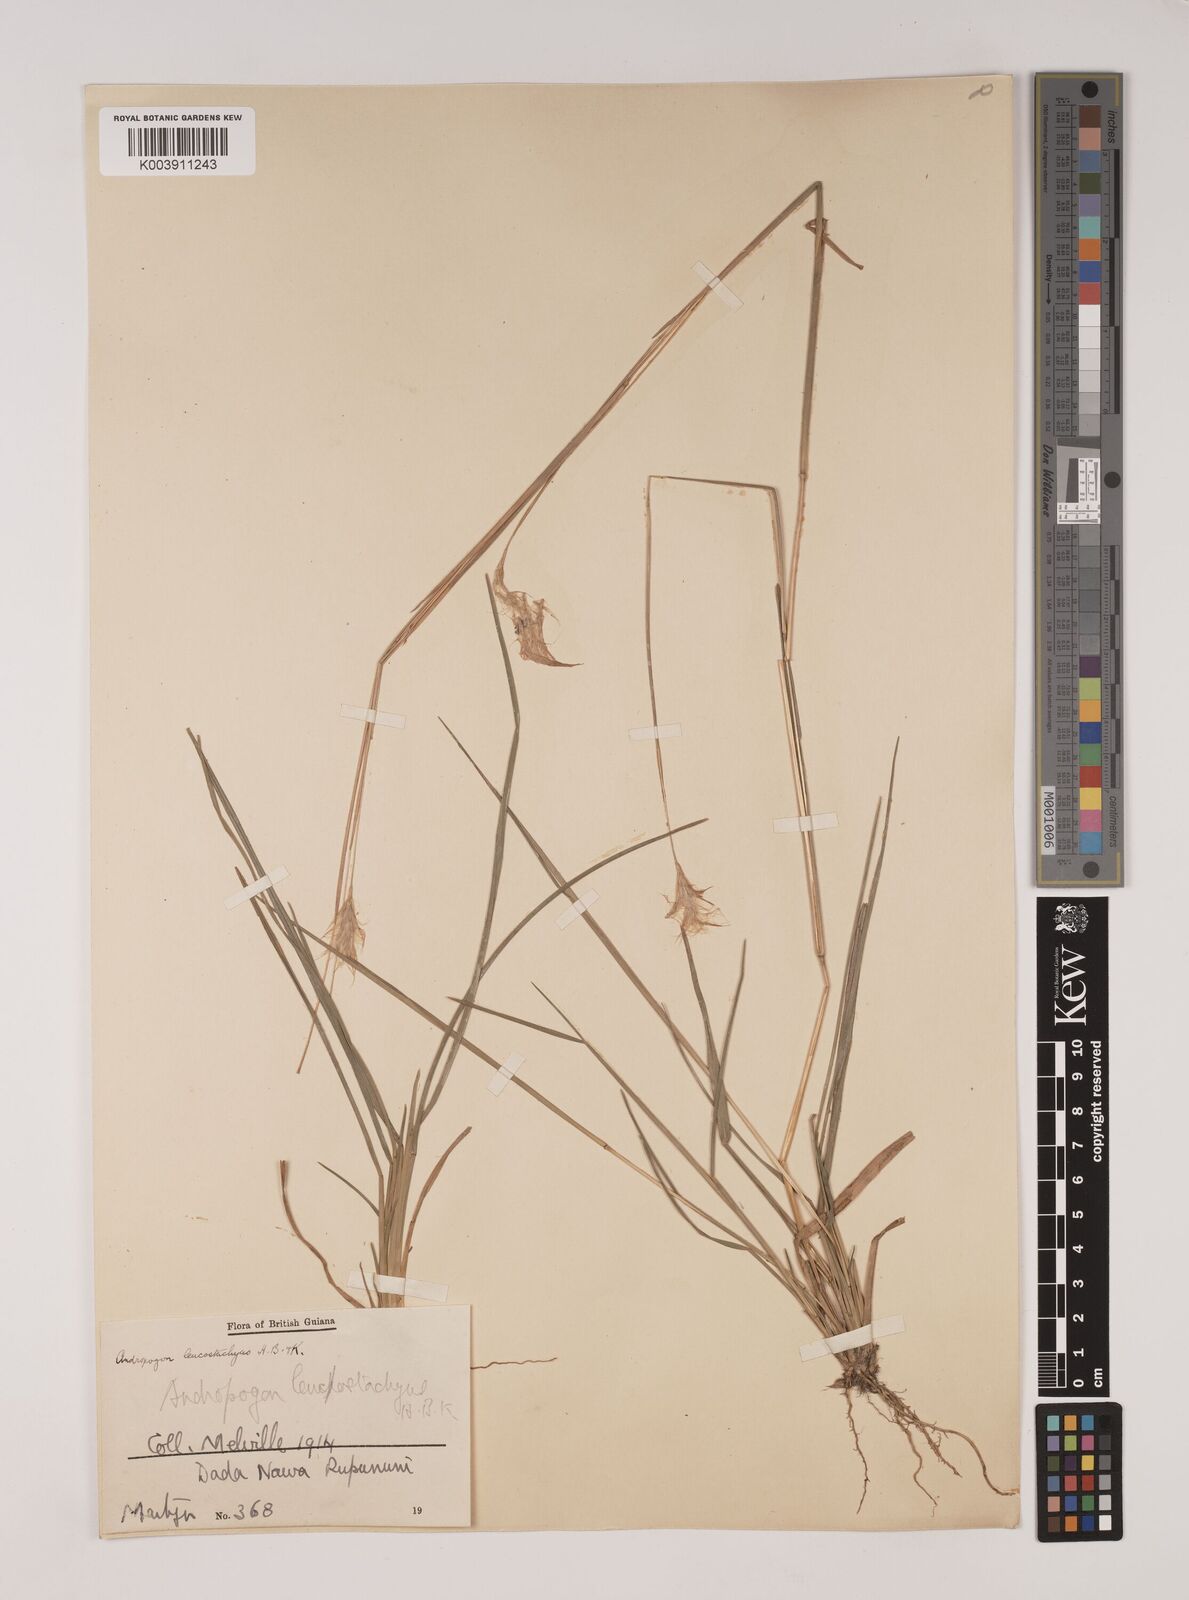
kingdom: Plantae
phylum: Tracheophyta
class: Liliopsida
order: Poales
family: Poaceae
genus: Andropogon
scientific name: Andropogon leucostachyus
